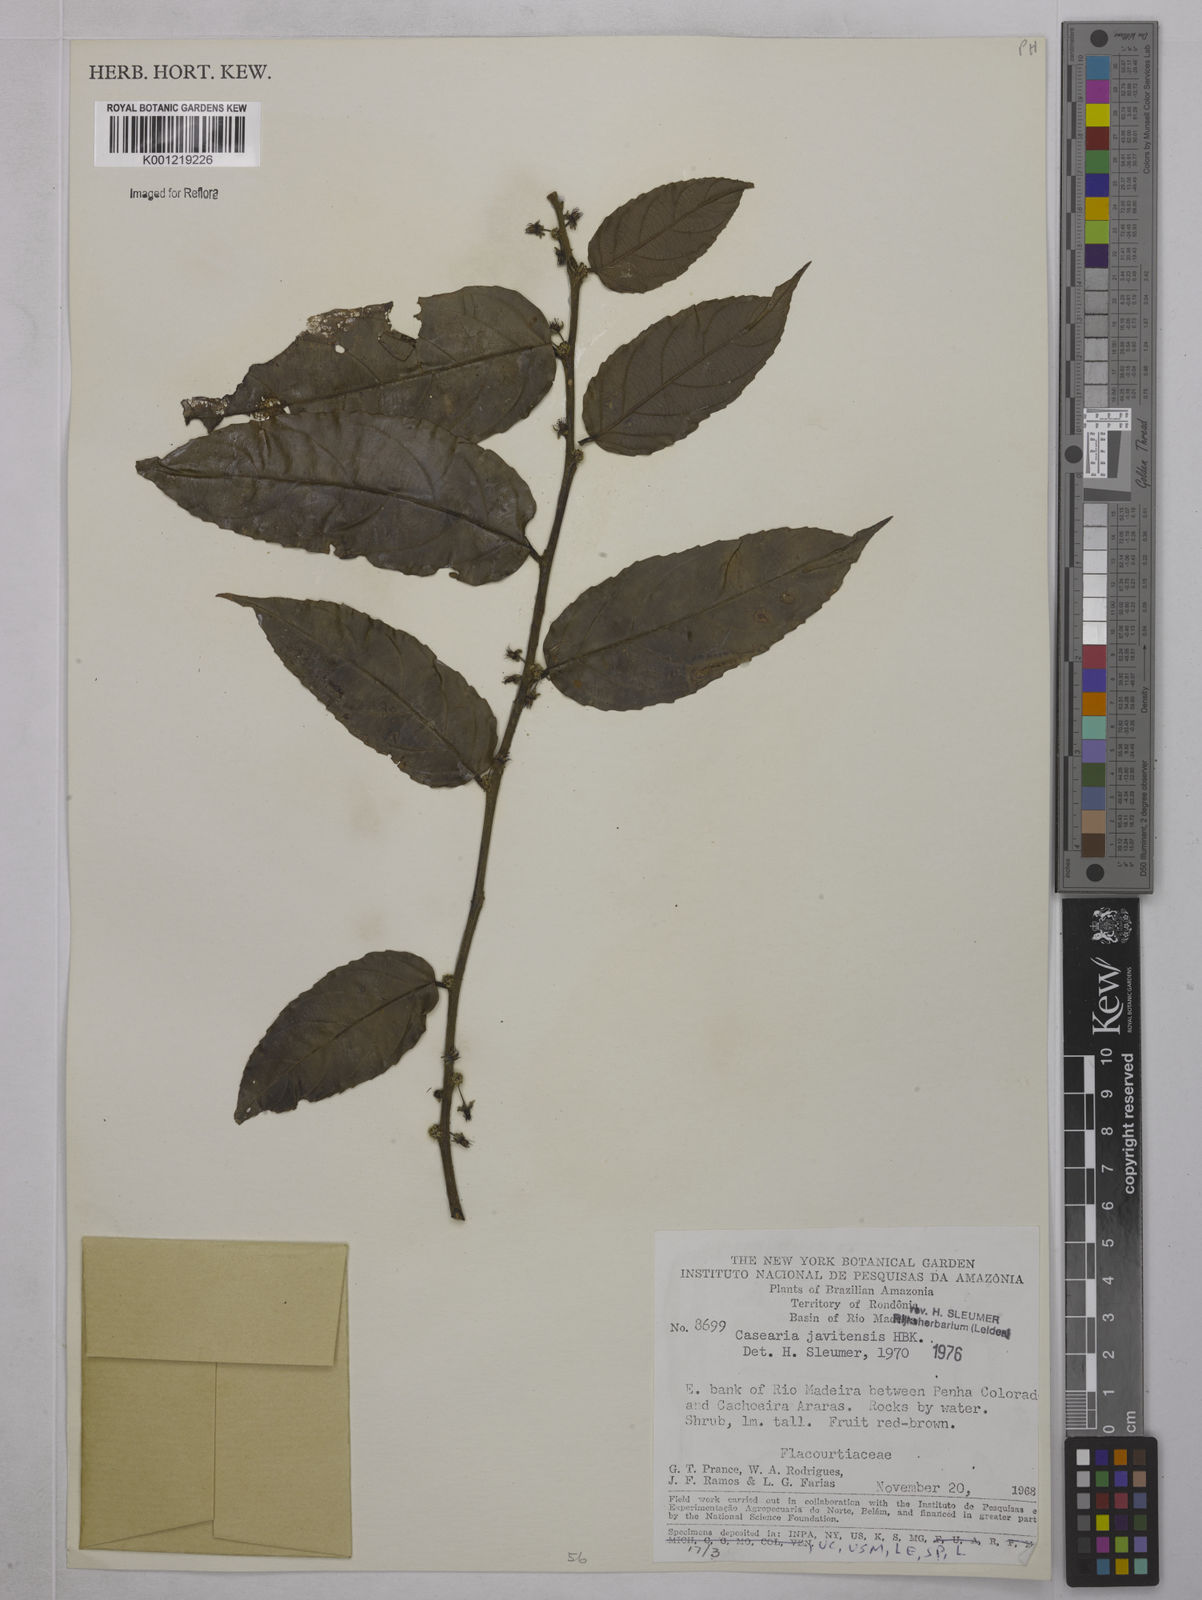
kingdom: Plantae
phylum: Tracheophyta
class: Magnoliopsida
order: Malpighiales
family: Salicaceae
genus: Piparea
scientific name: Piparea multiflora
